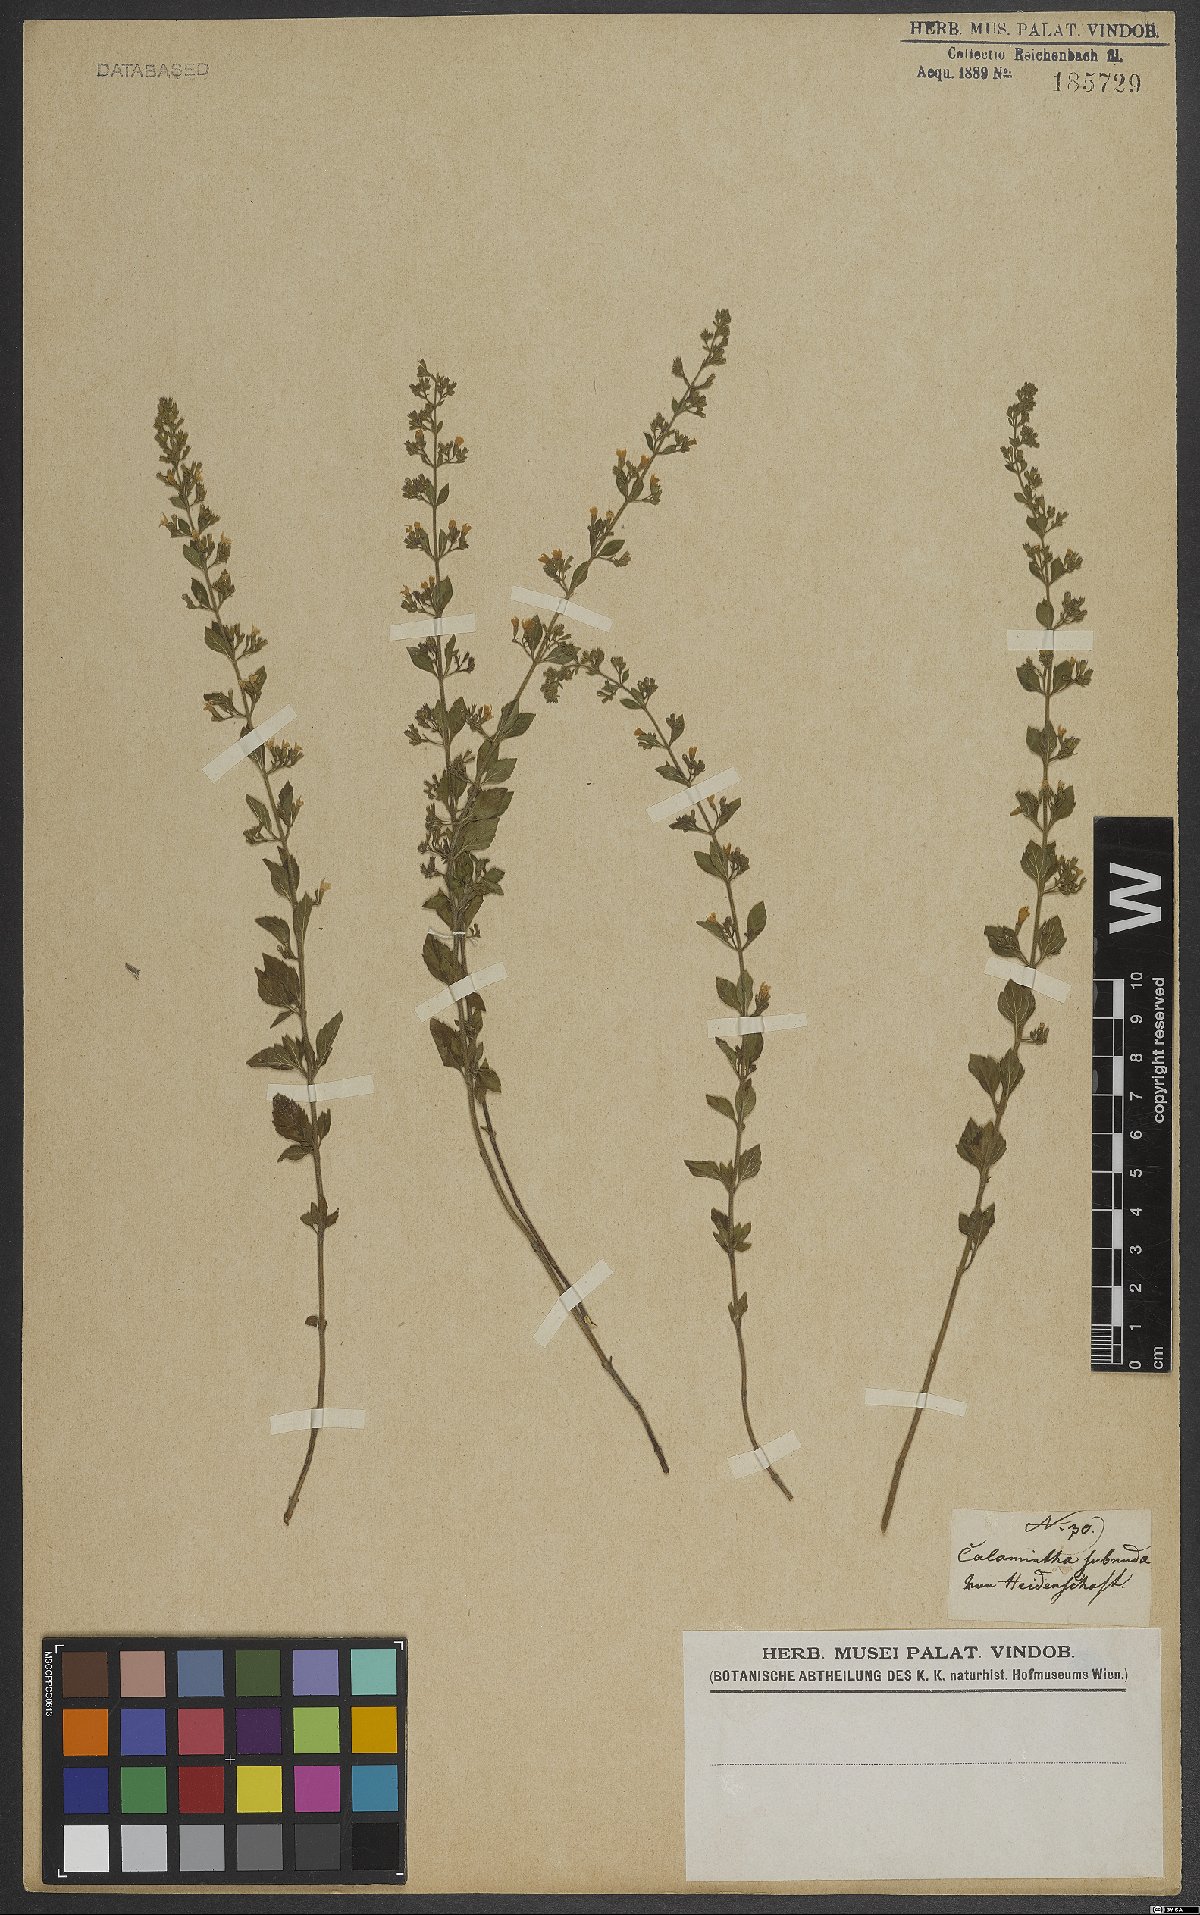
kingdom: Plantae
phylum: Tracheophyta
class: Magnoliopsida
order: Lamiales
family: Lamiaceae
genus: Clinopodium
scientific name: Clinopodium nepeta
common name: Lesser calamint
